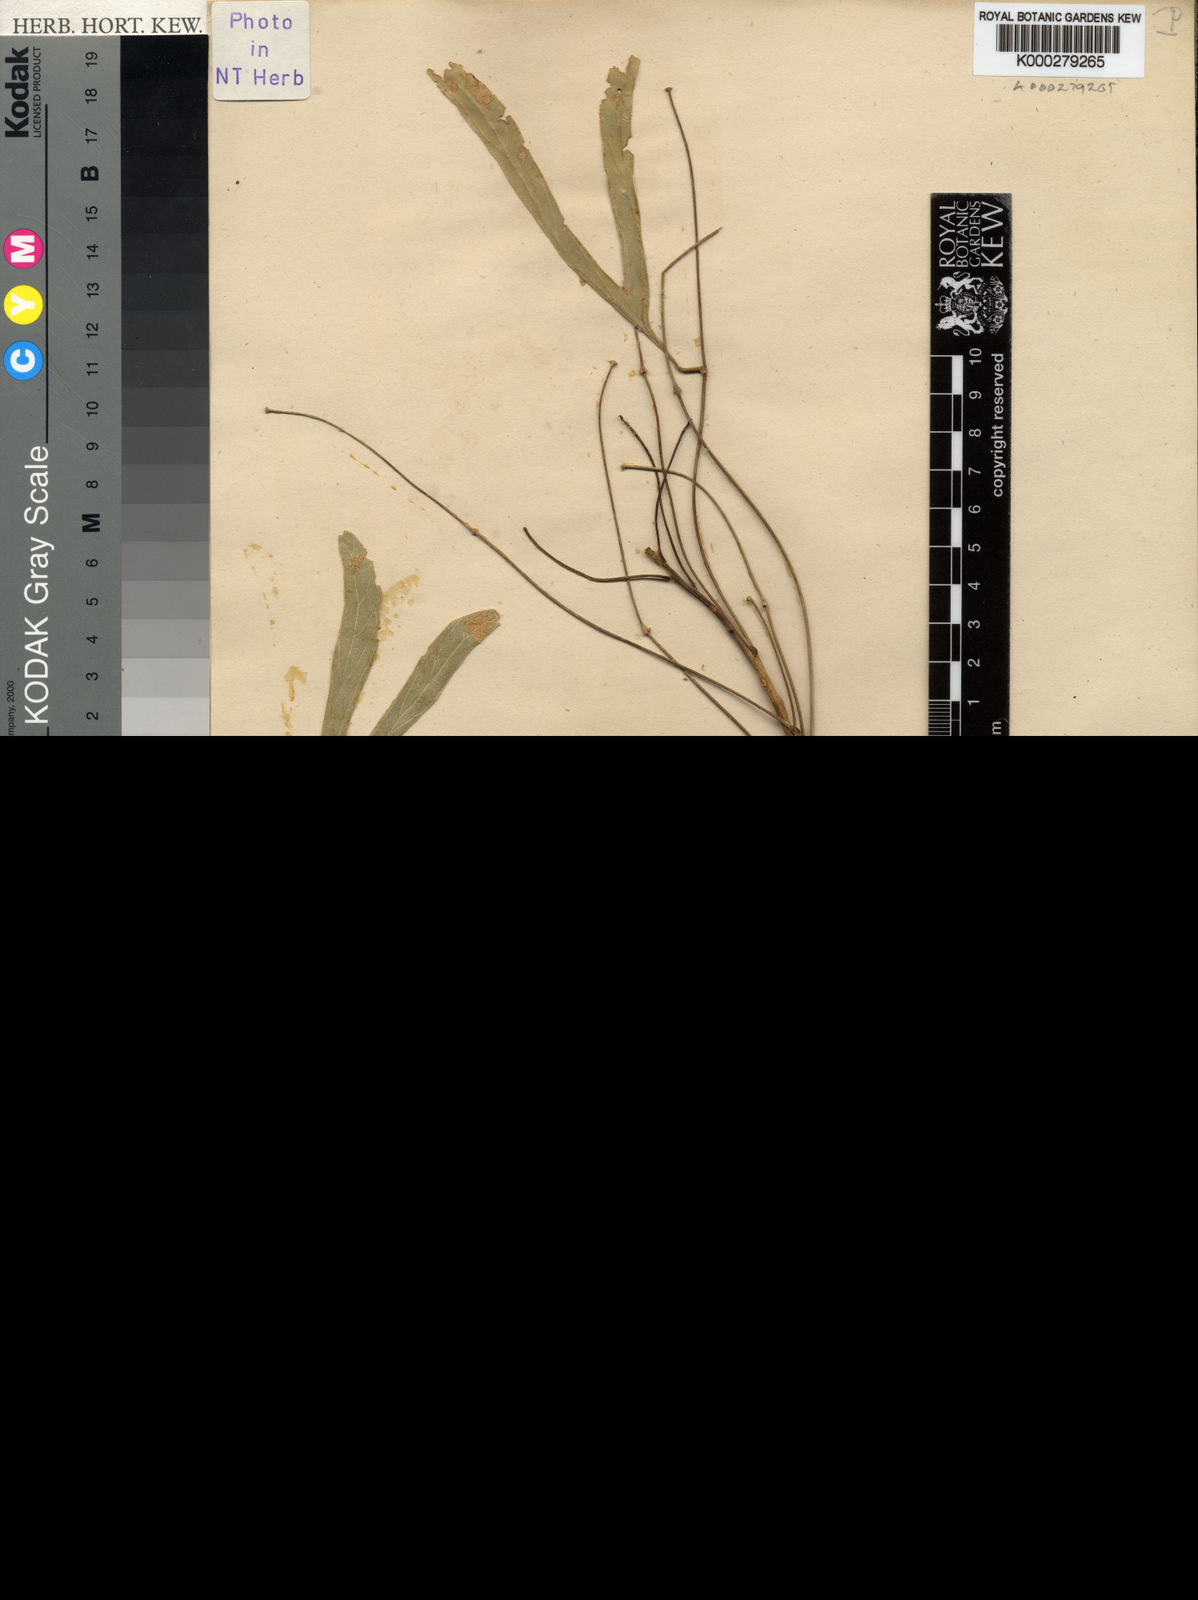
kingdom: Plantae
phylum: Tracheophyta
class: Magnoliopsida
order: Fabales
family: Fabaceae
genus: Erythrina
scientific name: Erythrina vespertilio
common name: Bat-wing coral tree
